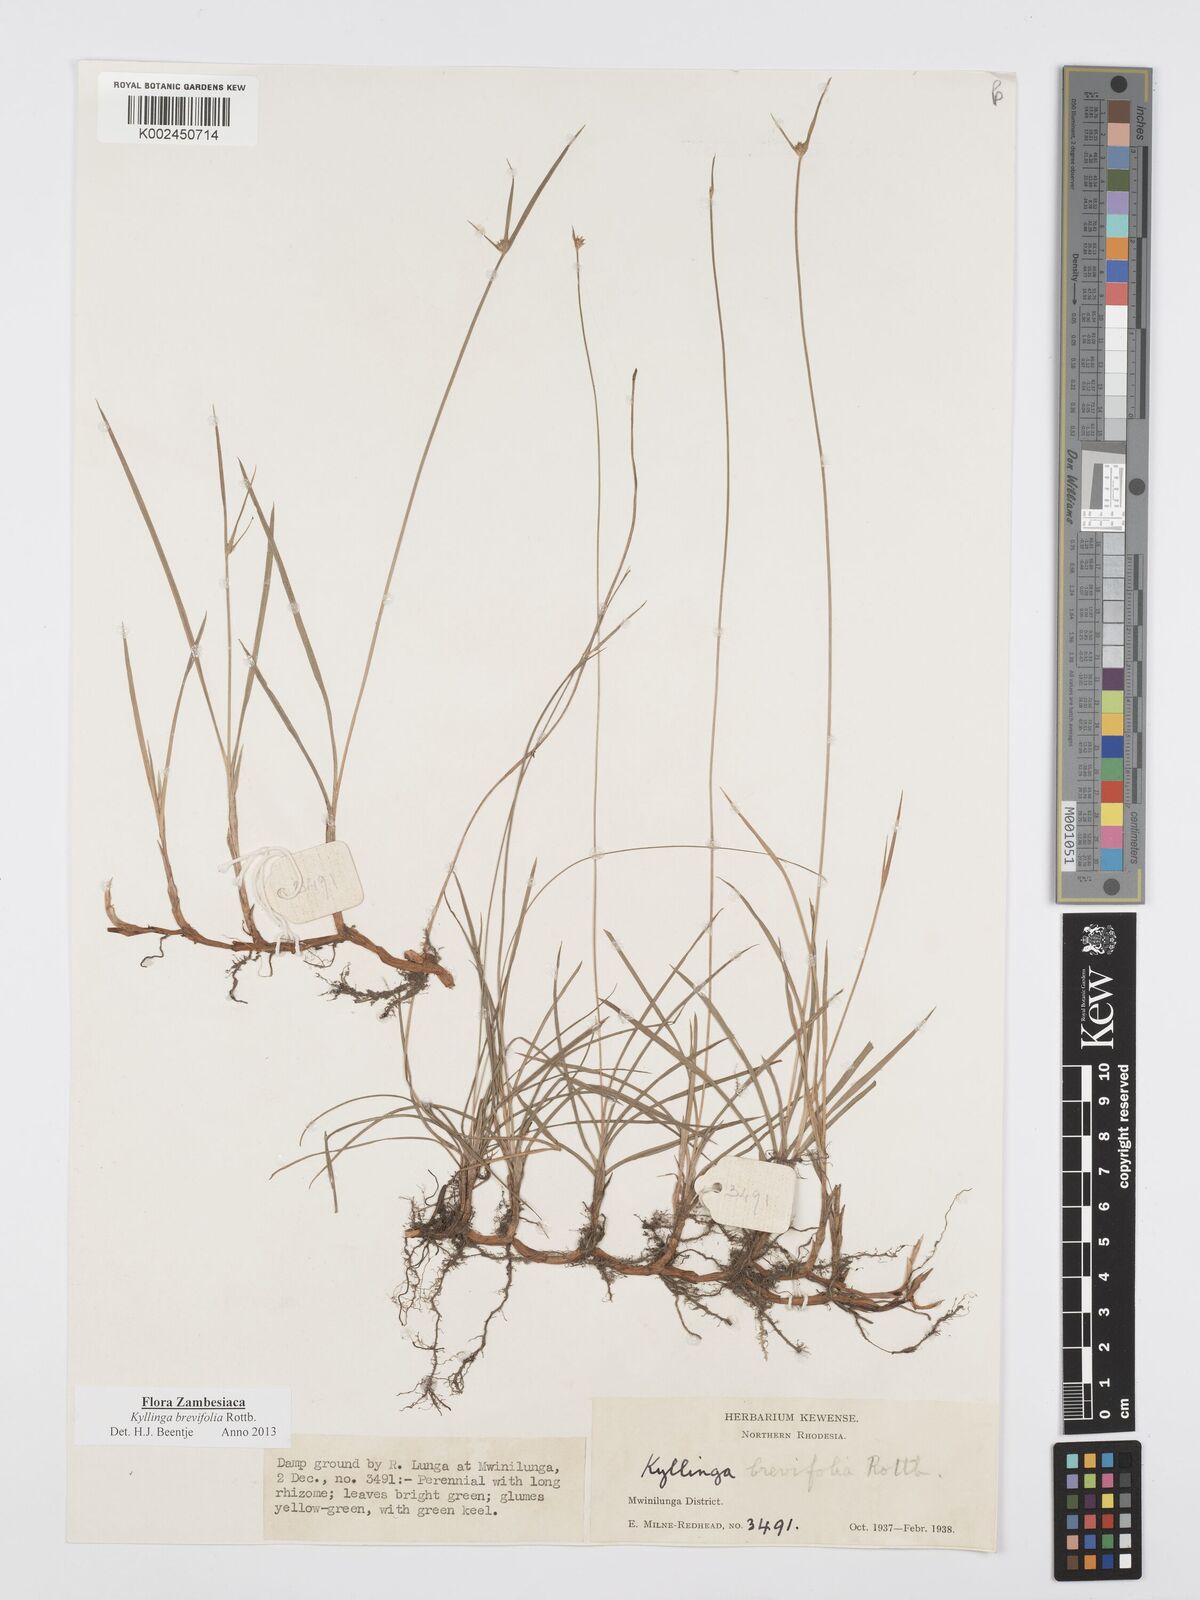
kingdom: Plantae
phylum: Tracheophyta
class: Liliopsida
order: Poales
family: Cyperaceae
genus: Cyperus
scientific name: Cyperus brevifolius
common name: Globe kyllinga
